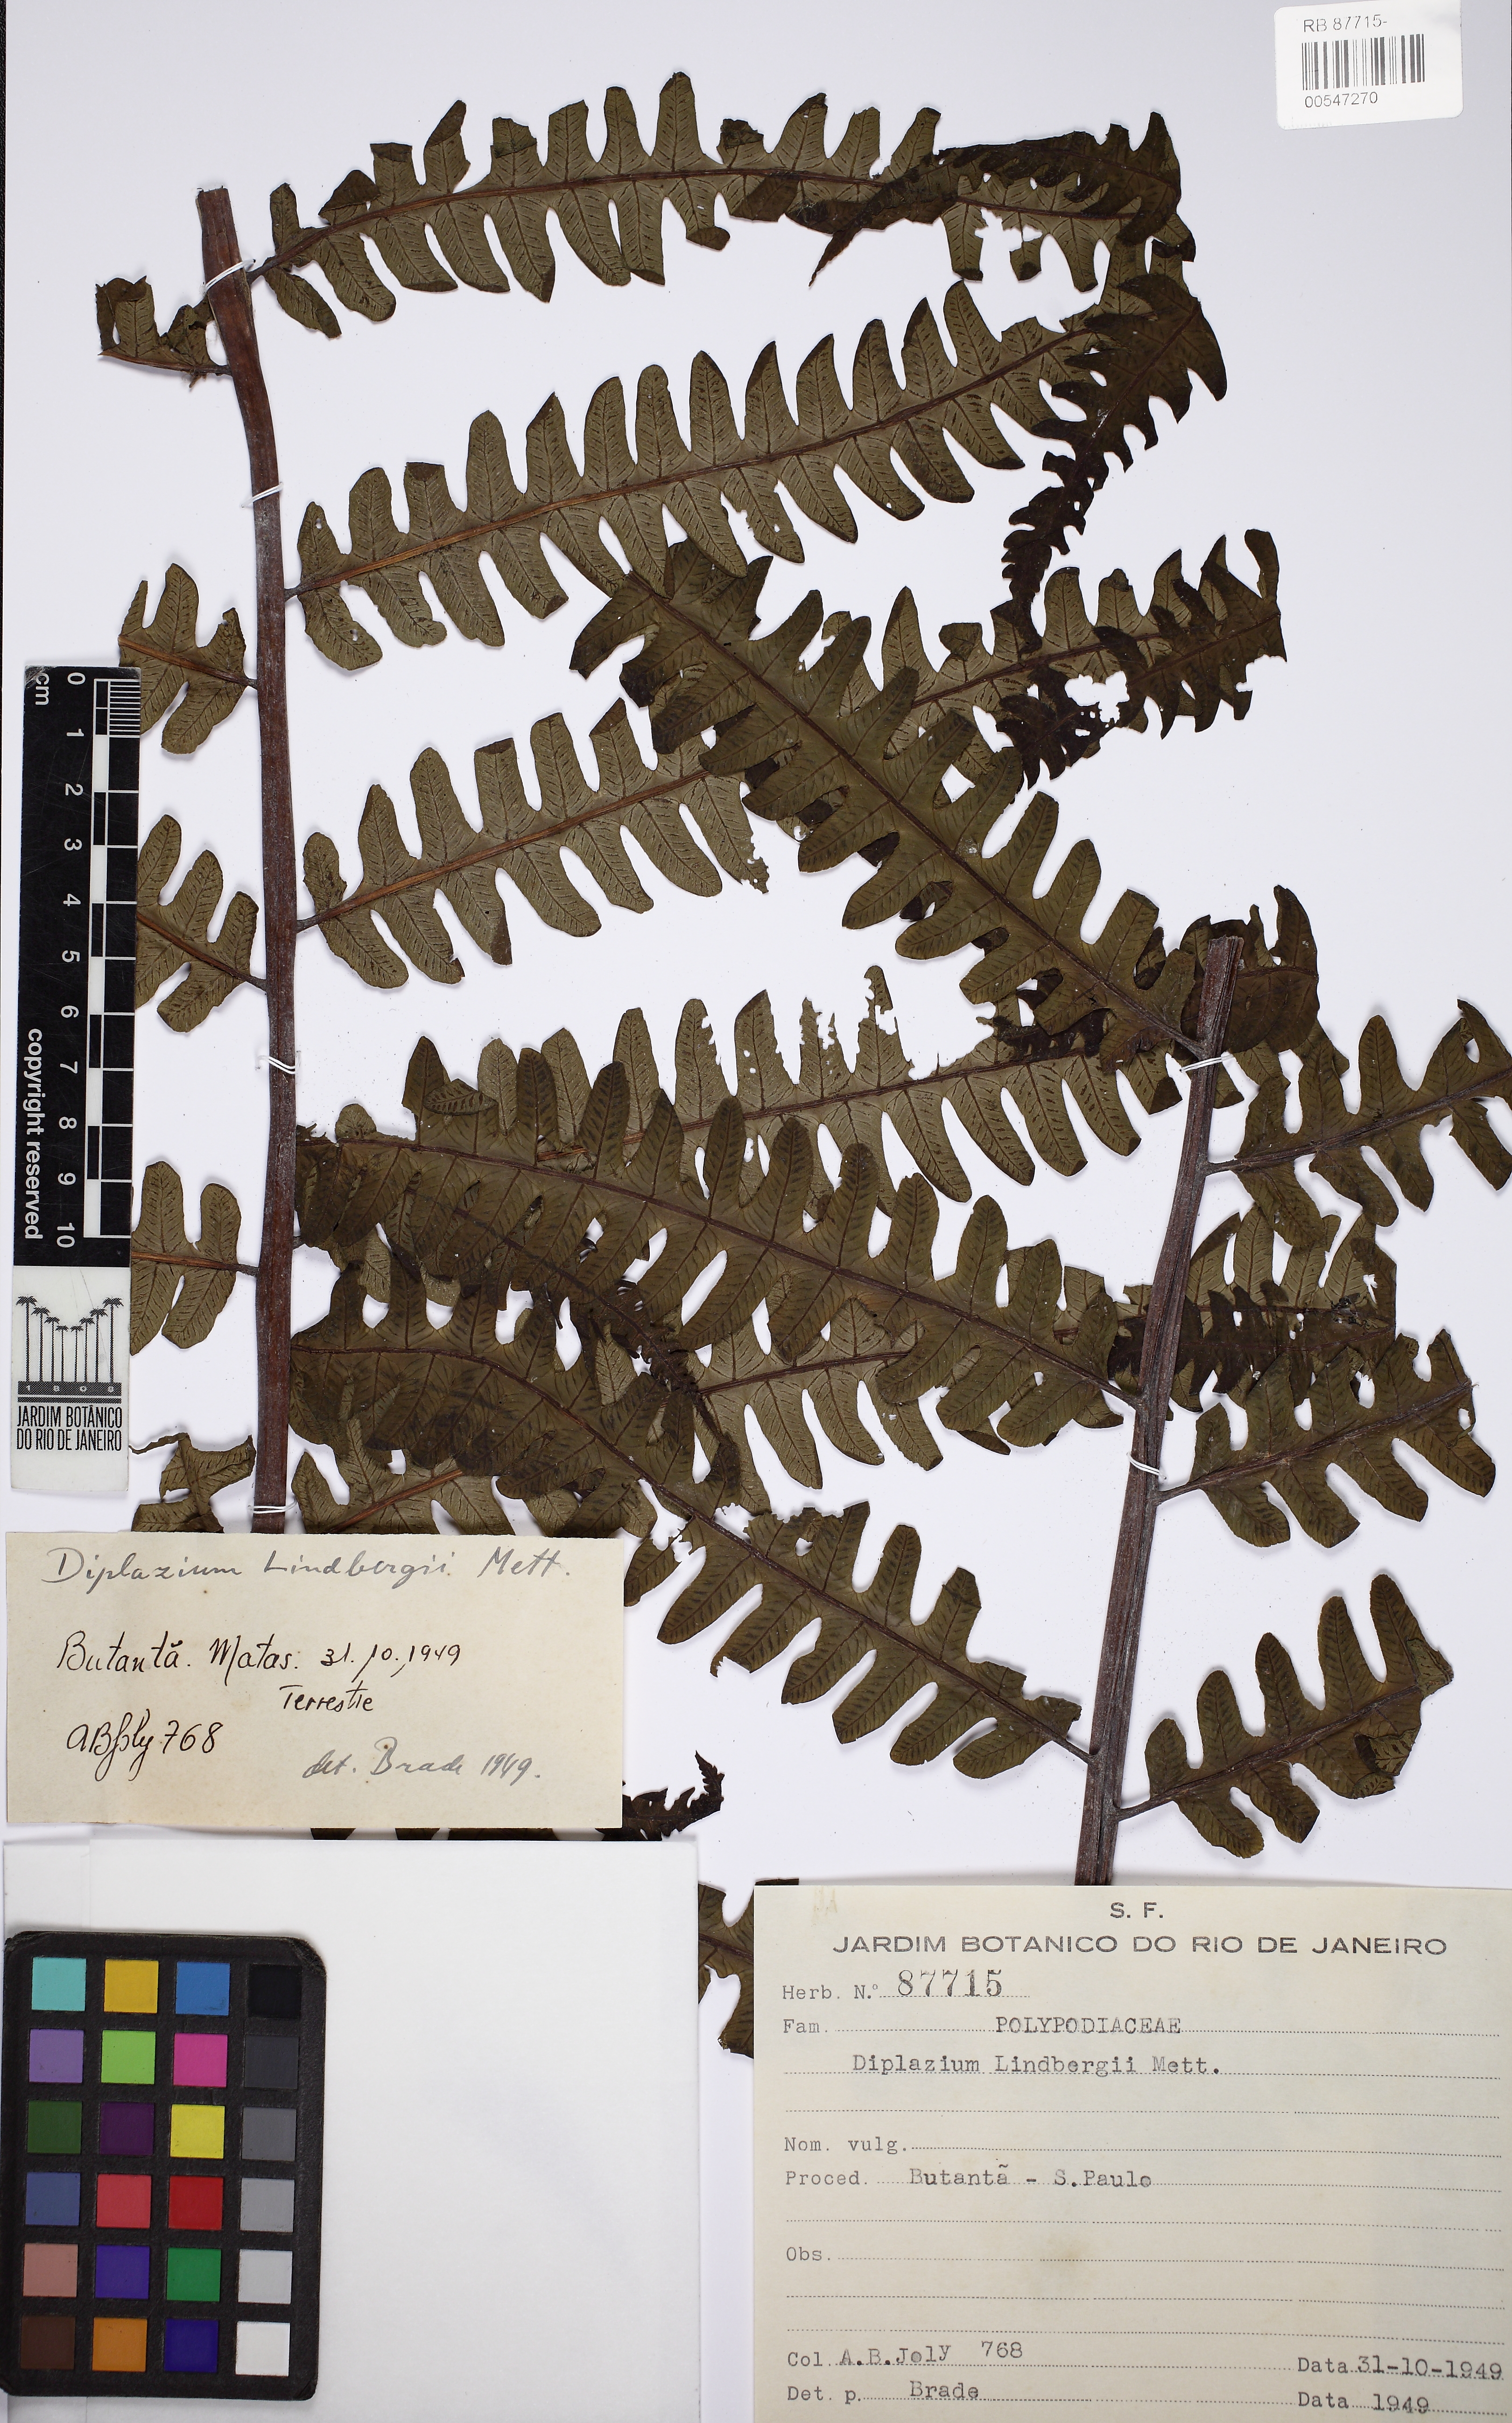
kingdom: Plantae
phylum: Tracheophyta
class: Polypodiopsida
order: Polypodiales
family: Athyriaceae
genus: Diplazium
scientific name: Diplazium lindbergii
